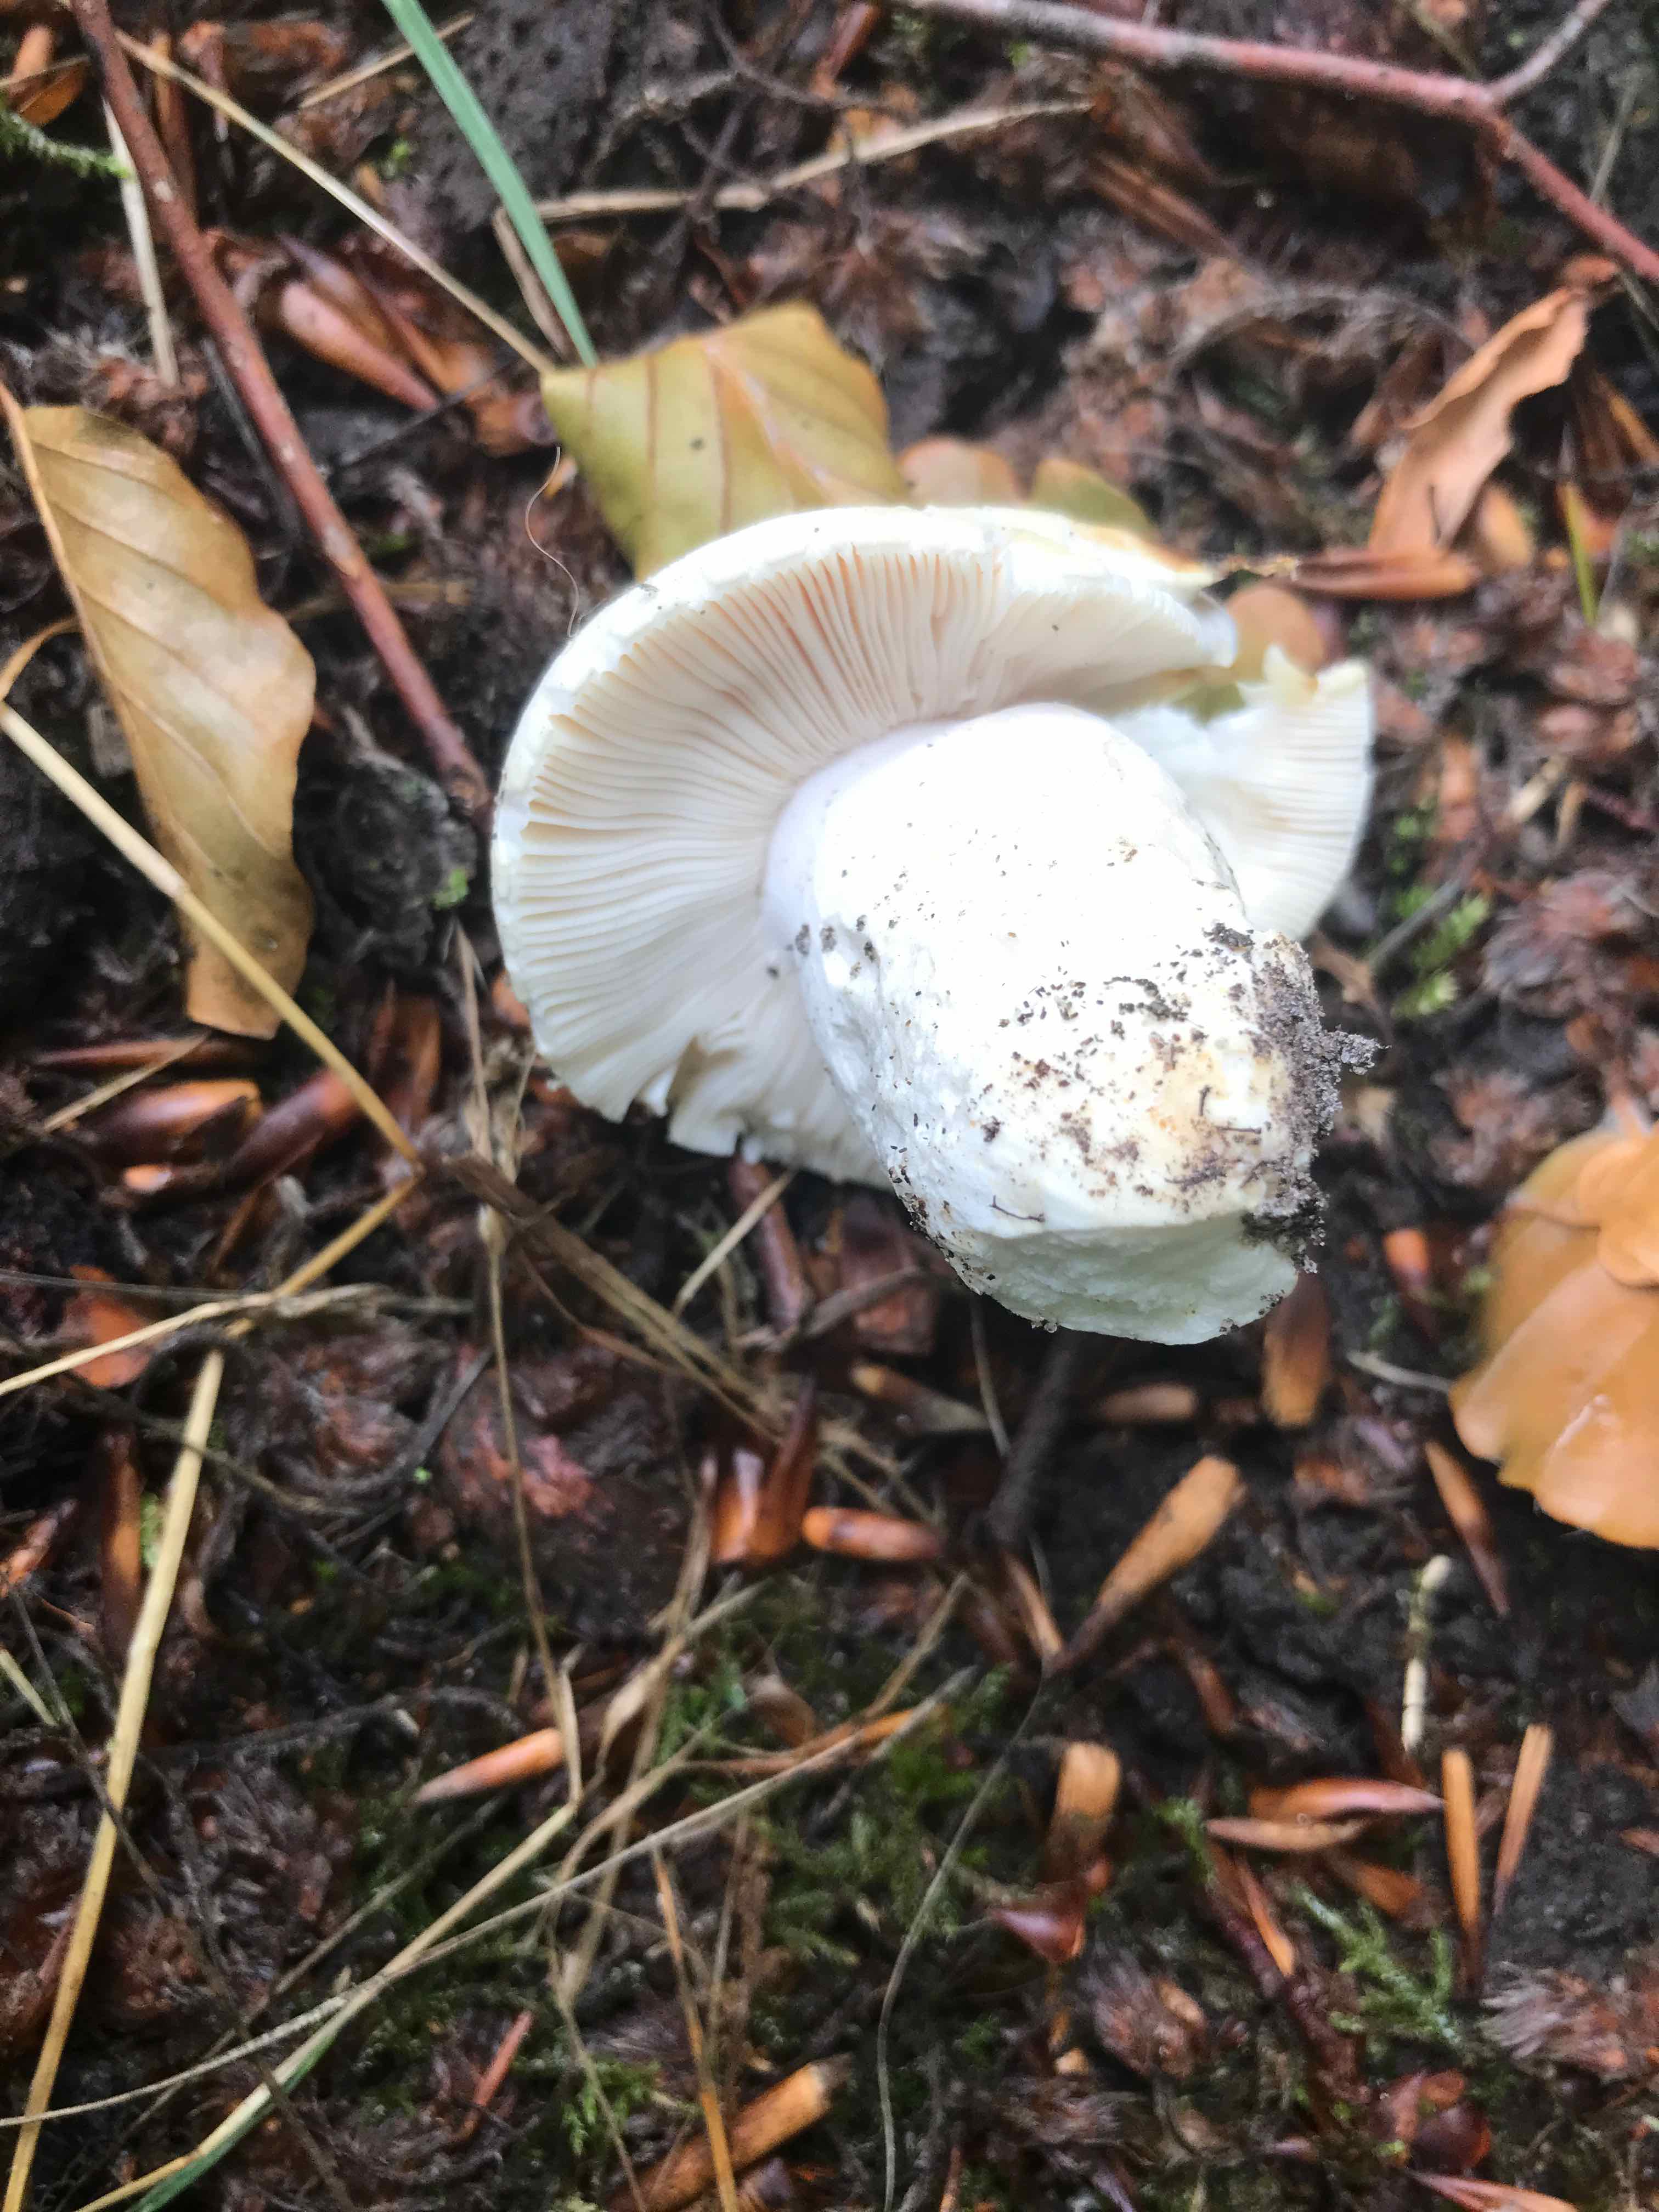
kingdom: Fungi
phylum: Basidiomycota
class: Agaricomycetes
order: Russulales
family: Russulaceae
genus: Russula
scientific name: Russula virescens
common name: spanskgrøn skørhat
